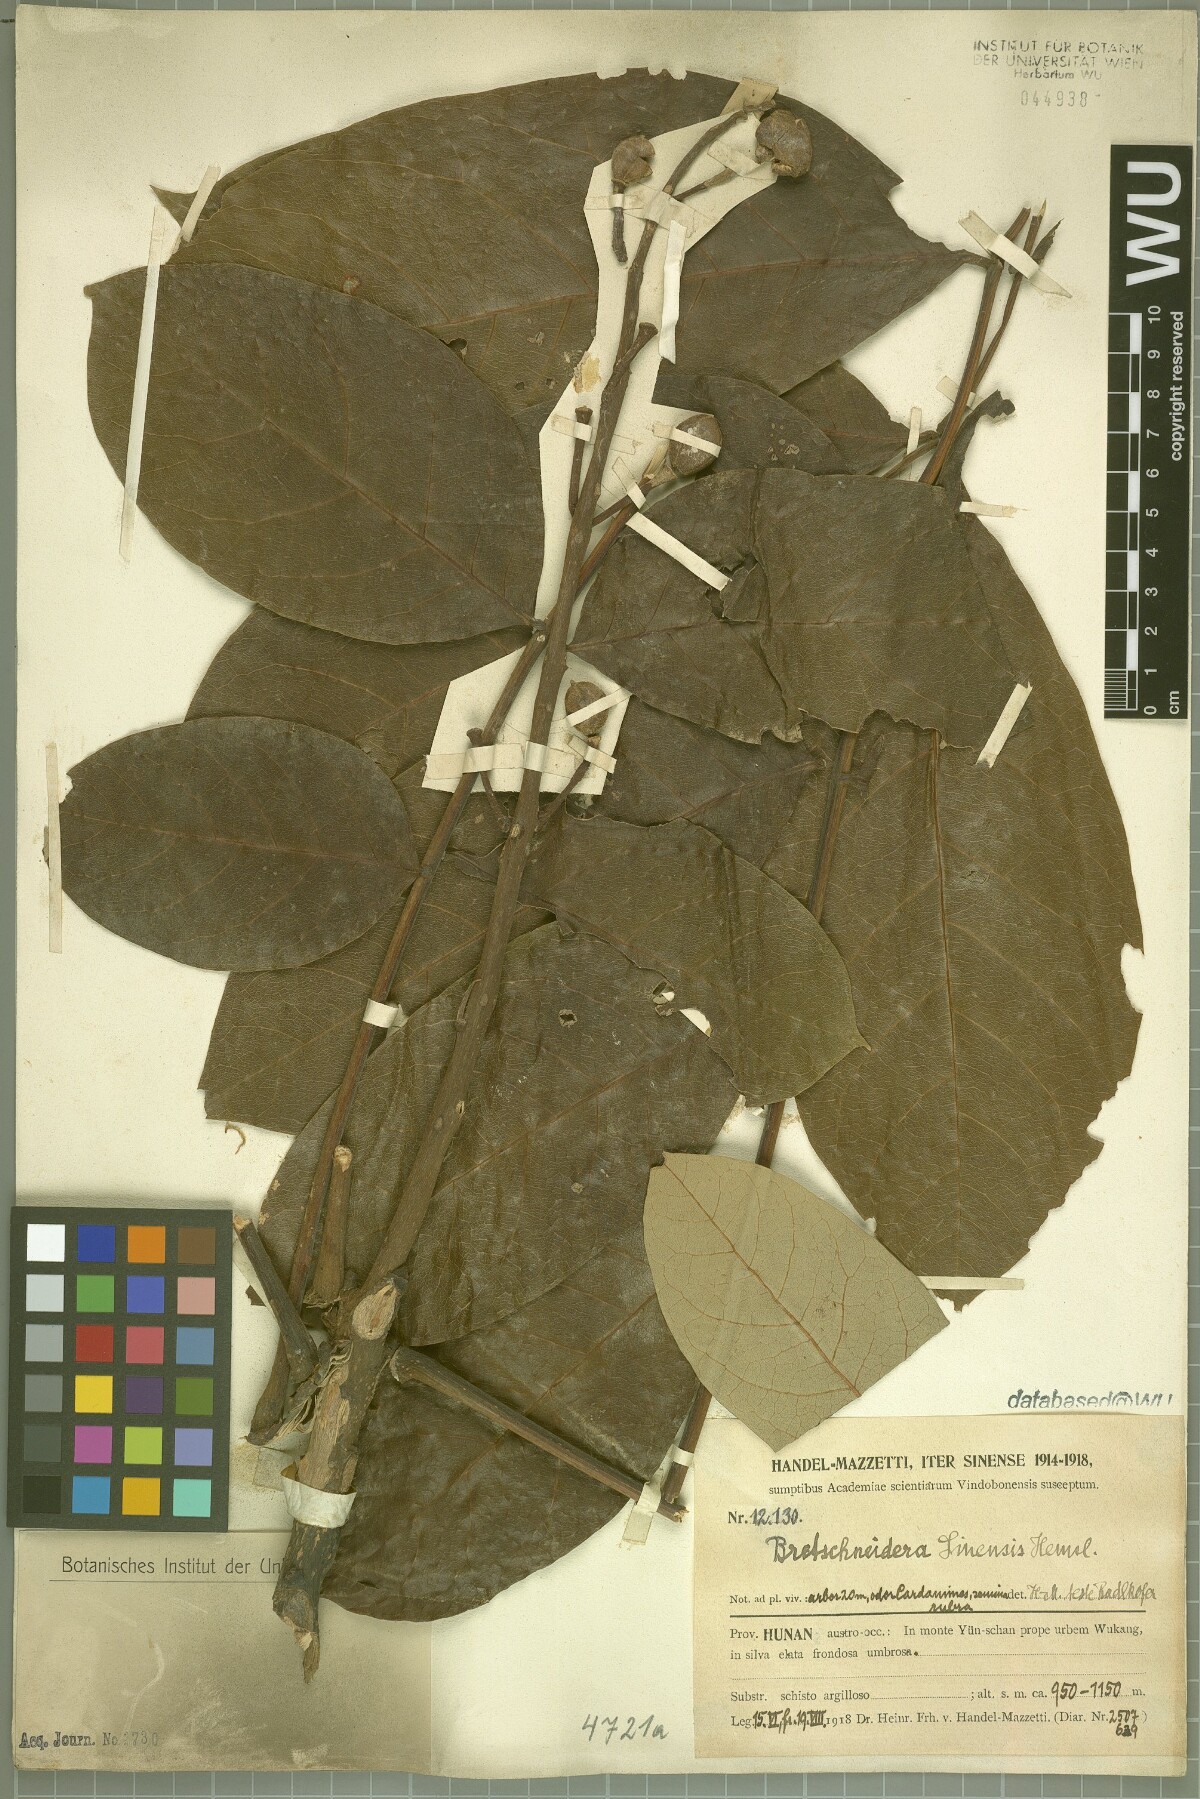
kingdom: Plantae
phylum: Tracheophyta
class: Magnoliopsida
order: Brassicales
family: Akaniaceae
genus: Bretschneidera
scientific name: Bretschneidera sinensis
